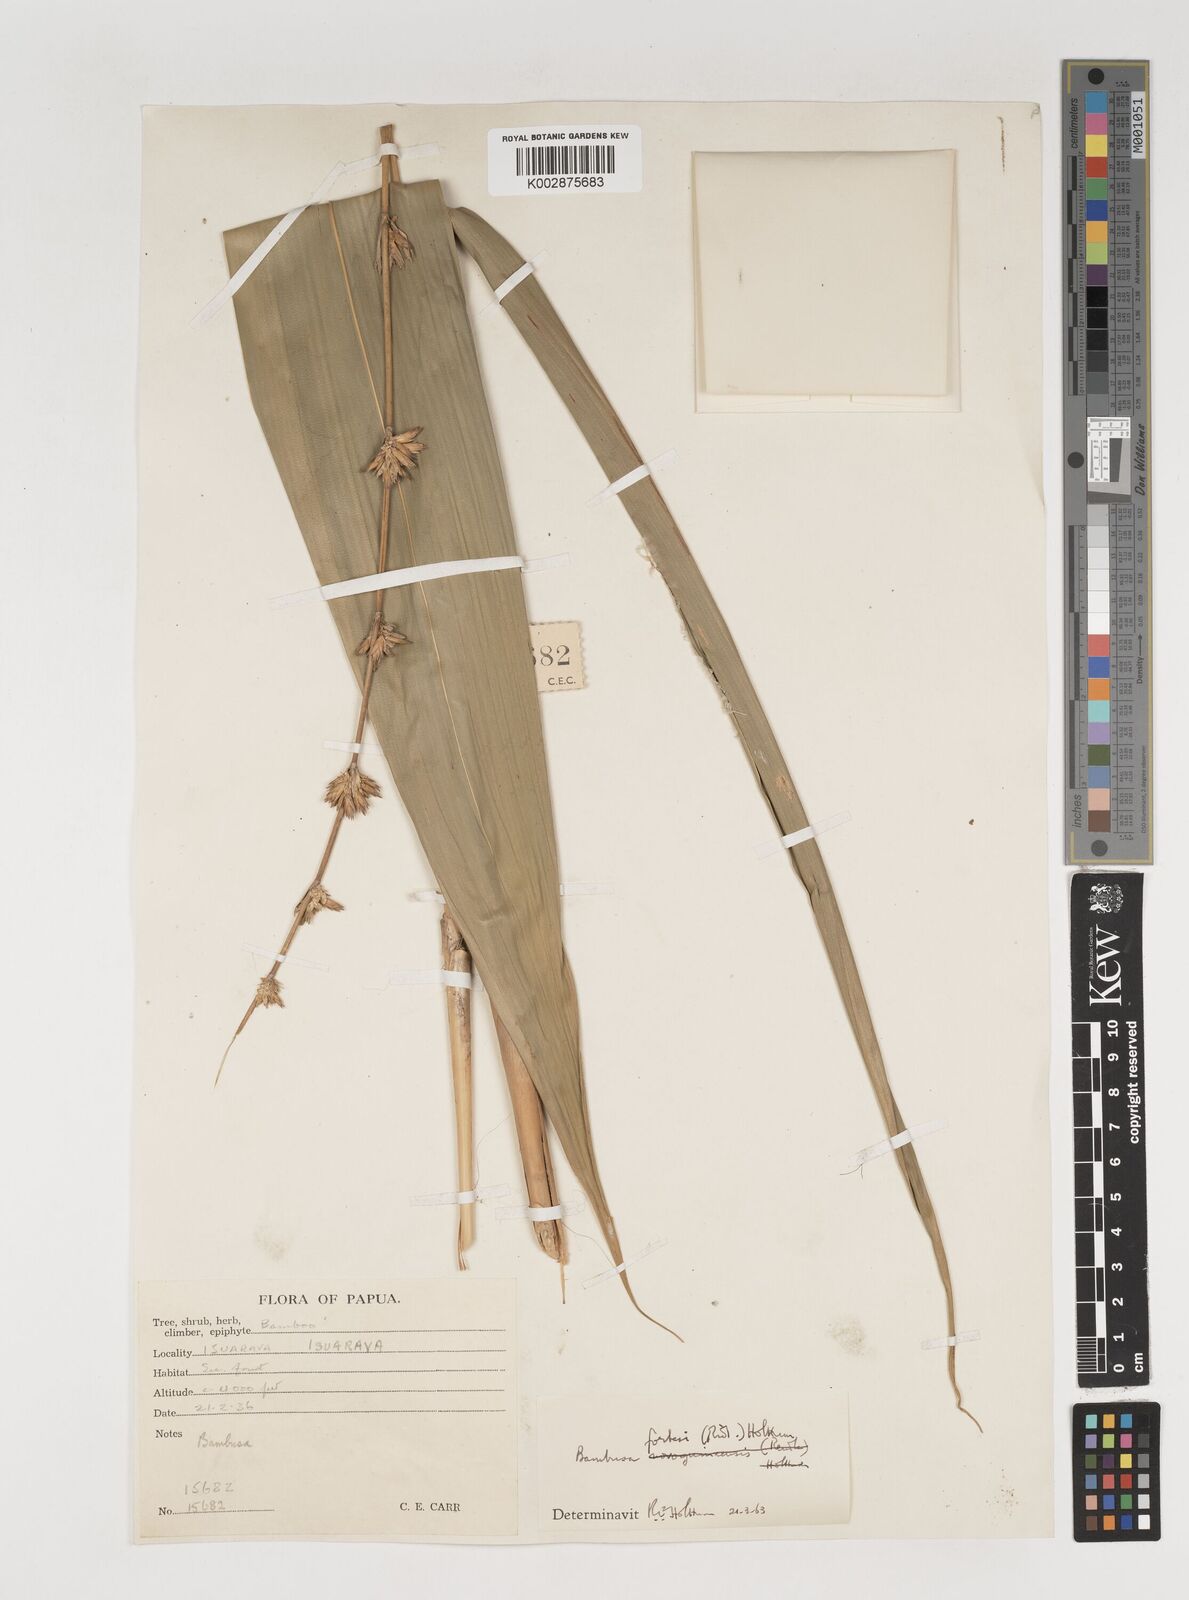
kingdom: Plantae
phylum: Tracheophyta
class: Liliopsida
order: Poales
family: Poaceae
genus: Neololeba
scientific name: Neololeba atra
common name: Cape bamboo
